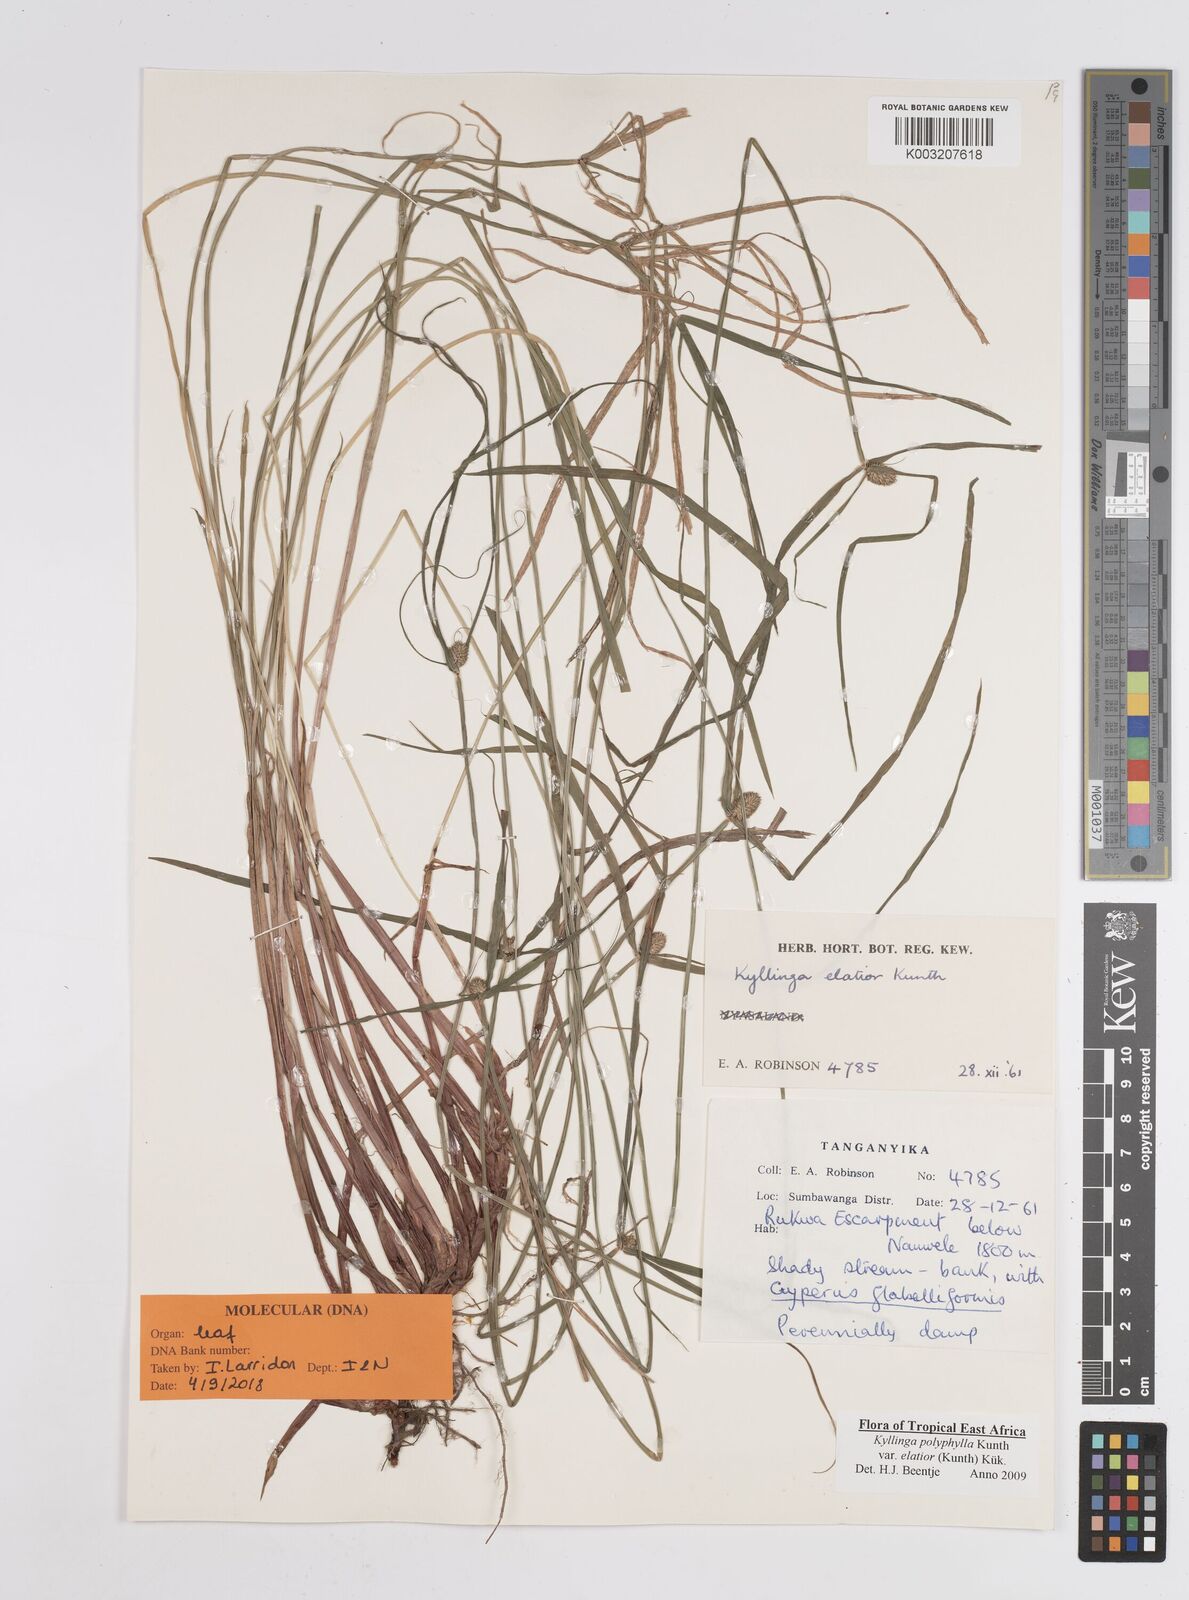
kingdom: Plantae
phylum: Tracheophyta
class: Liliopsida
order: Poales
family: Cyperaceae
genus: Cyperus
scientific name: Cyperus
